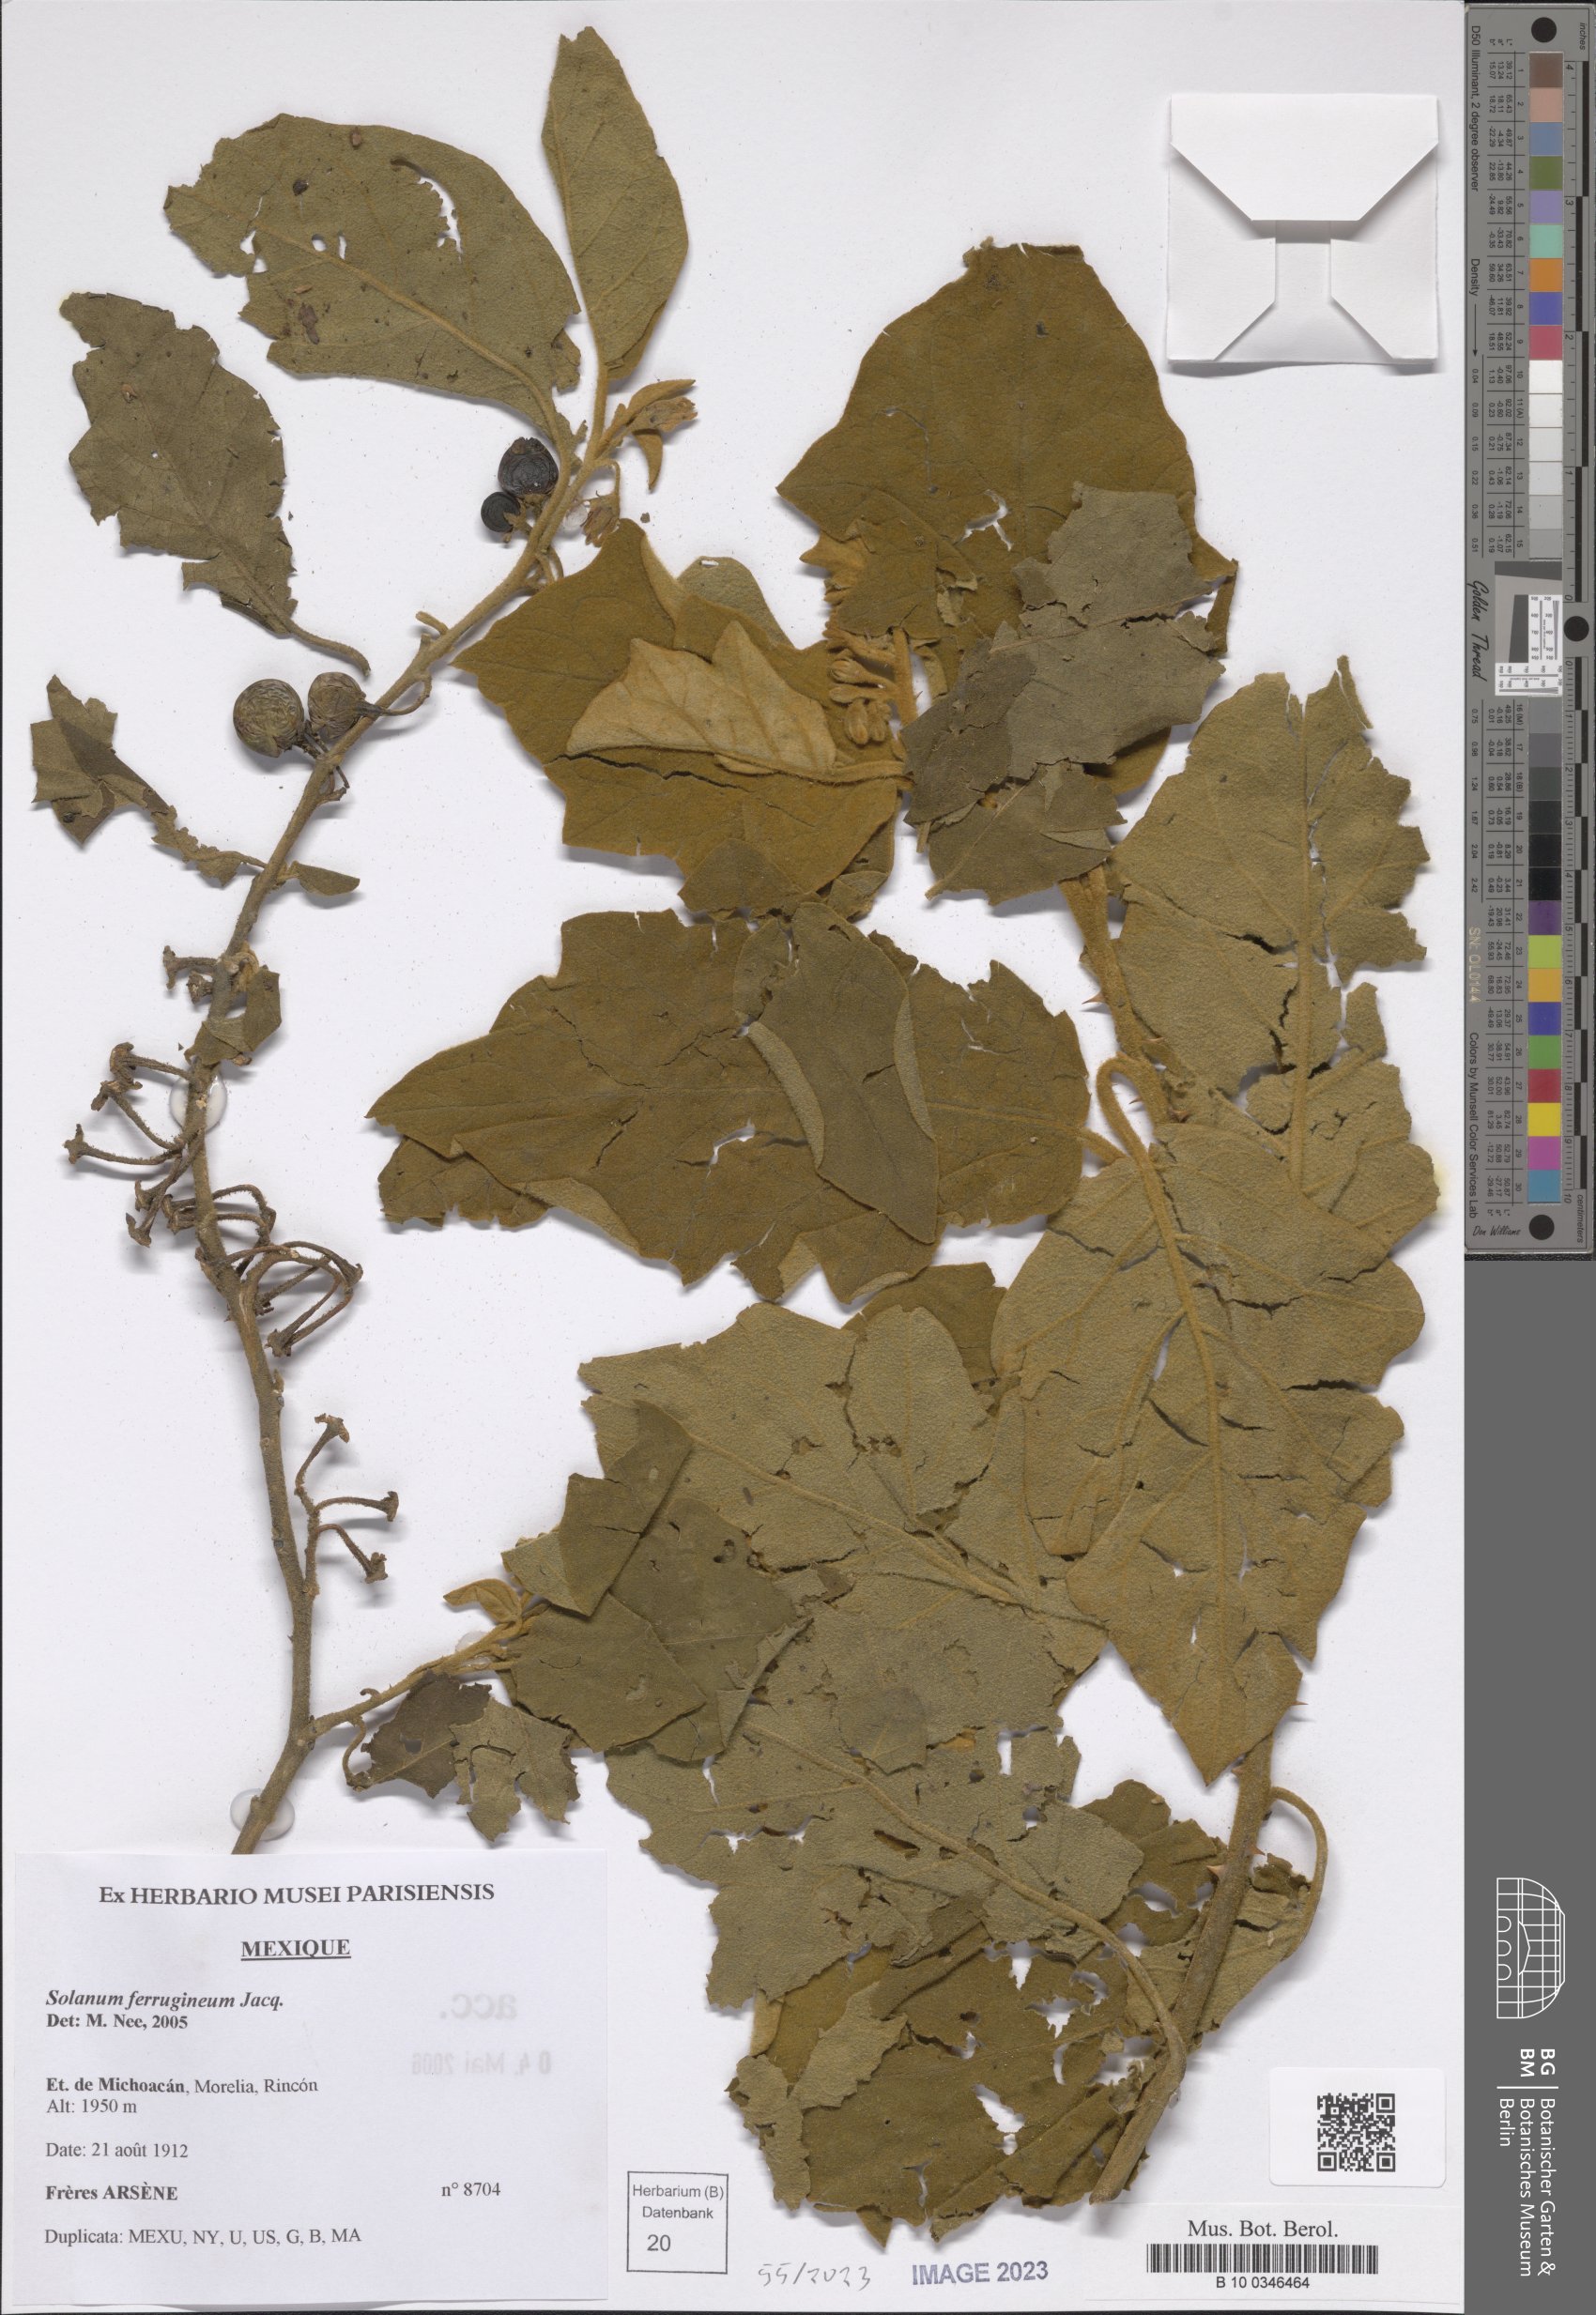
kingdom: Plantae
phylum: Tracheophyta
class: Magnoliopsida
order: Solanales
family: Solanaceae
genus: Solanum
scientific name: Solanum ferrugineum
